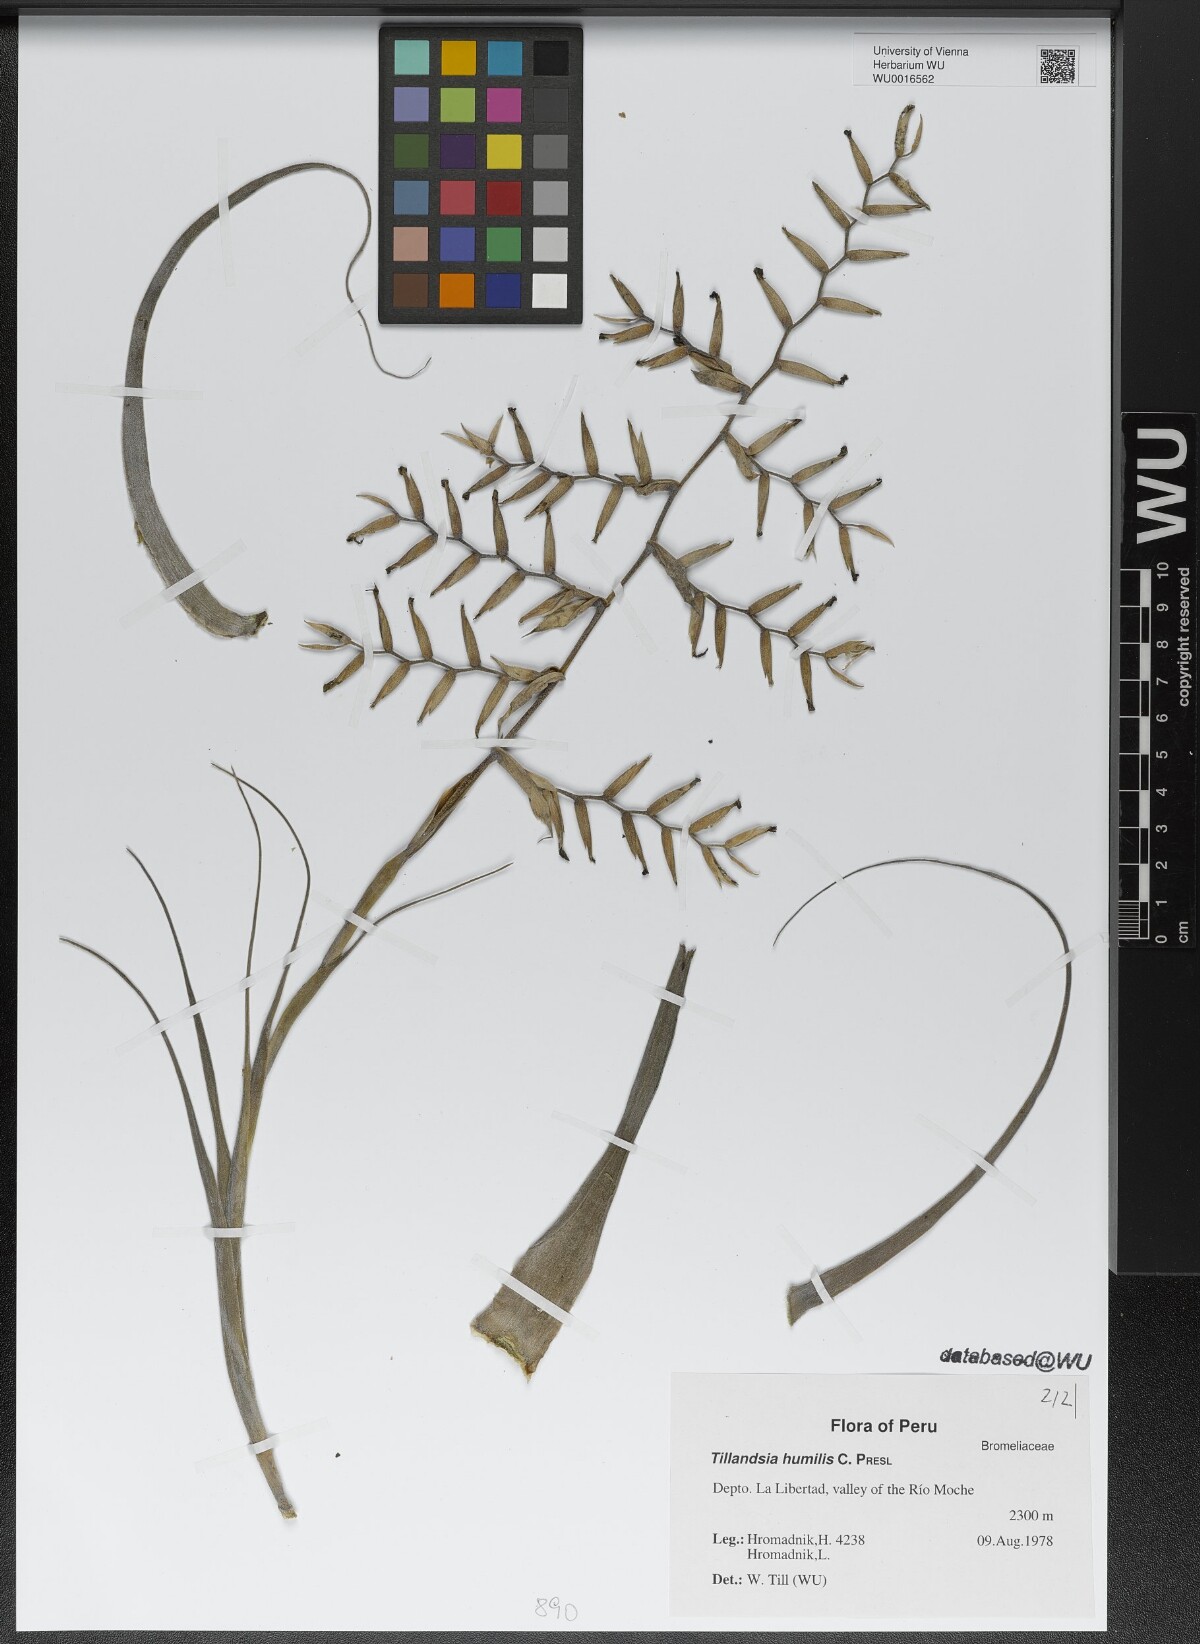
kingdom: Plantae
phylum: Tracheophyta
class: Liliopsida
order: Poales
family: Bromeliaceae
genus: Tillandsia
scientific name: Tillandsia humilis
